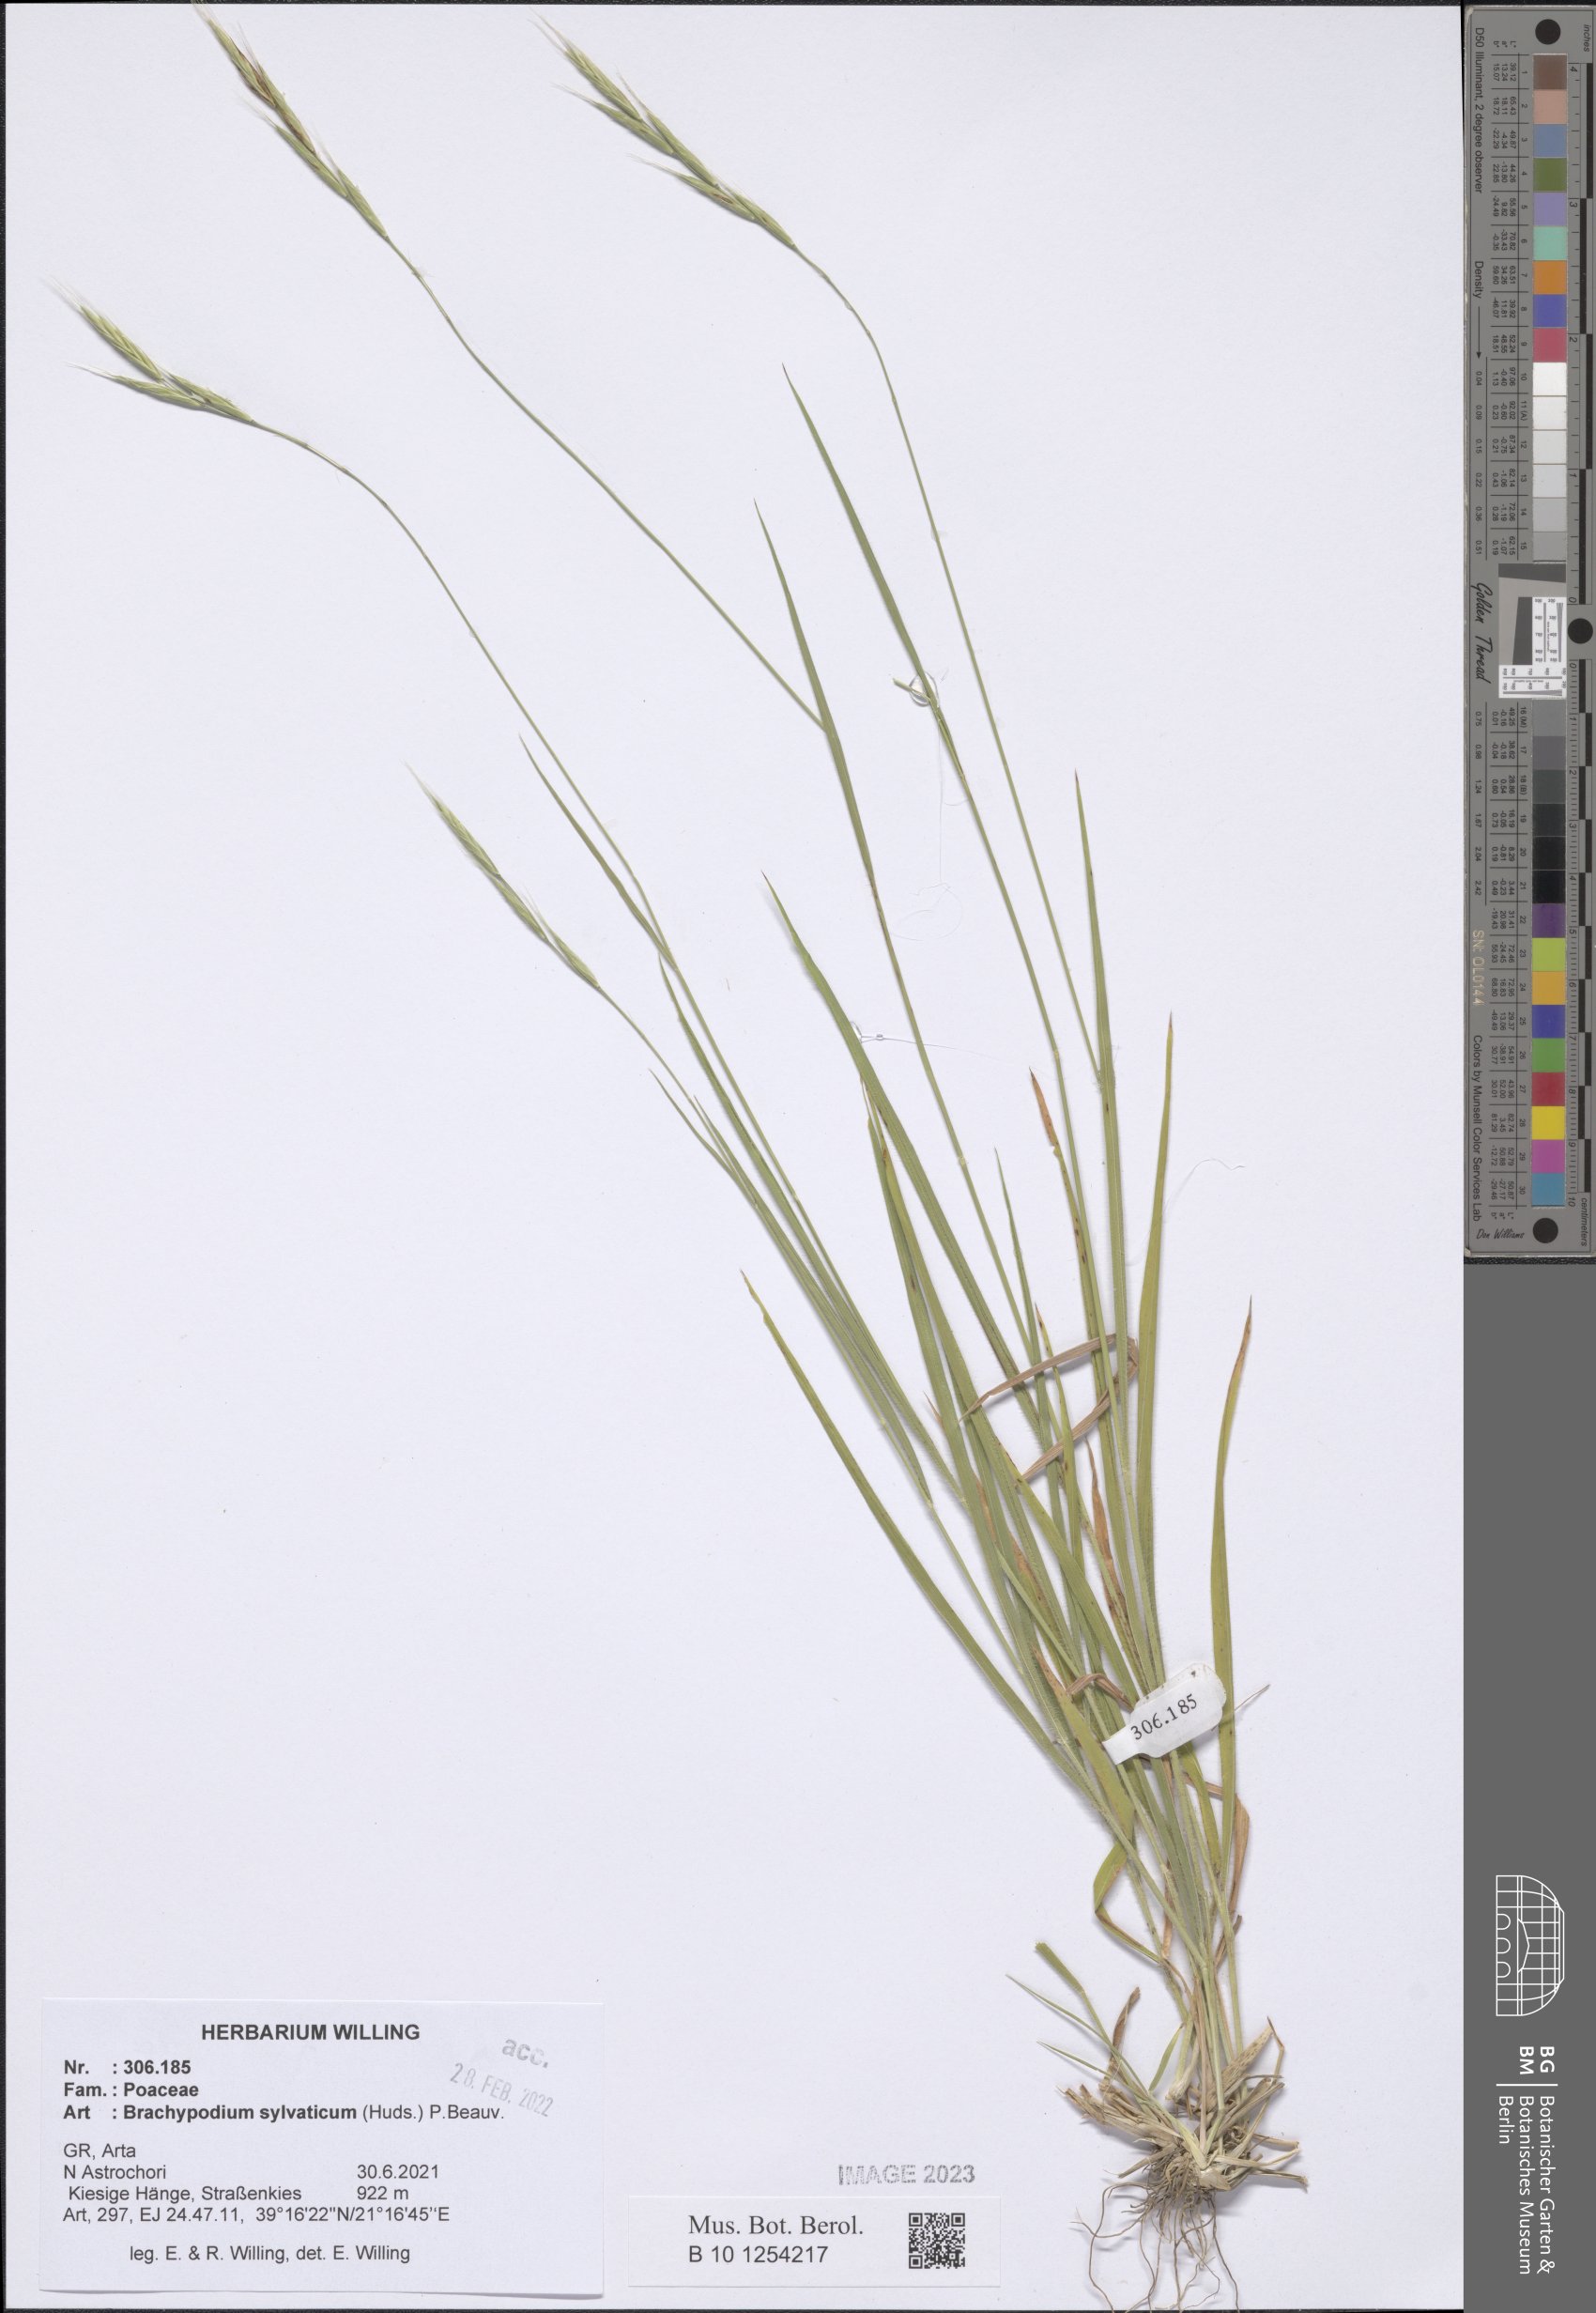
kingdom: Plantae
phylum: Tracheophyta
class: Liliopsida
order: Poales
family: Poaceae
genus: Brachypodium
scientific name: Brachypodium sylvaticum
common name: False-brome
